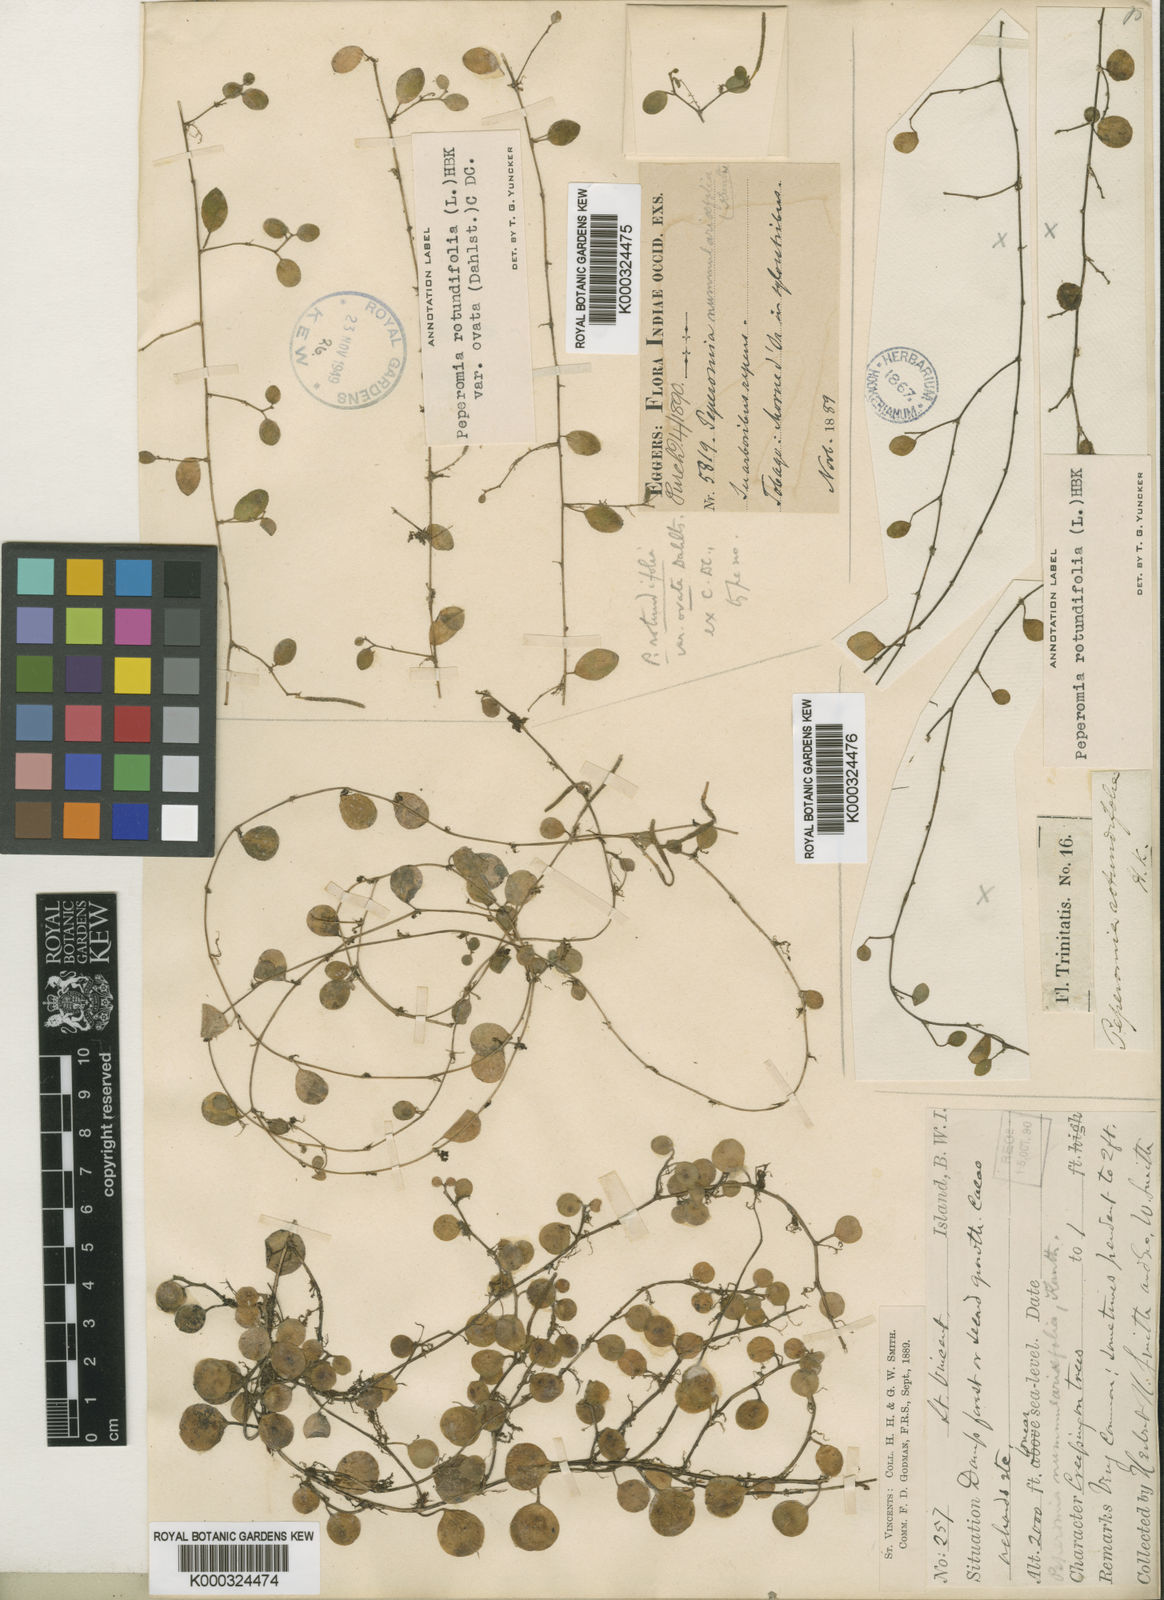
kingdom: Plantae
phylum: Tracheophyta
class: Magnoliopsida
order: Piperales
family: Piperaceae
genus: Peperomia
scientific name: Peperomia rotundifolia
